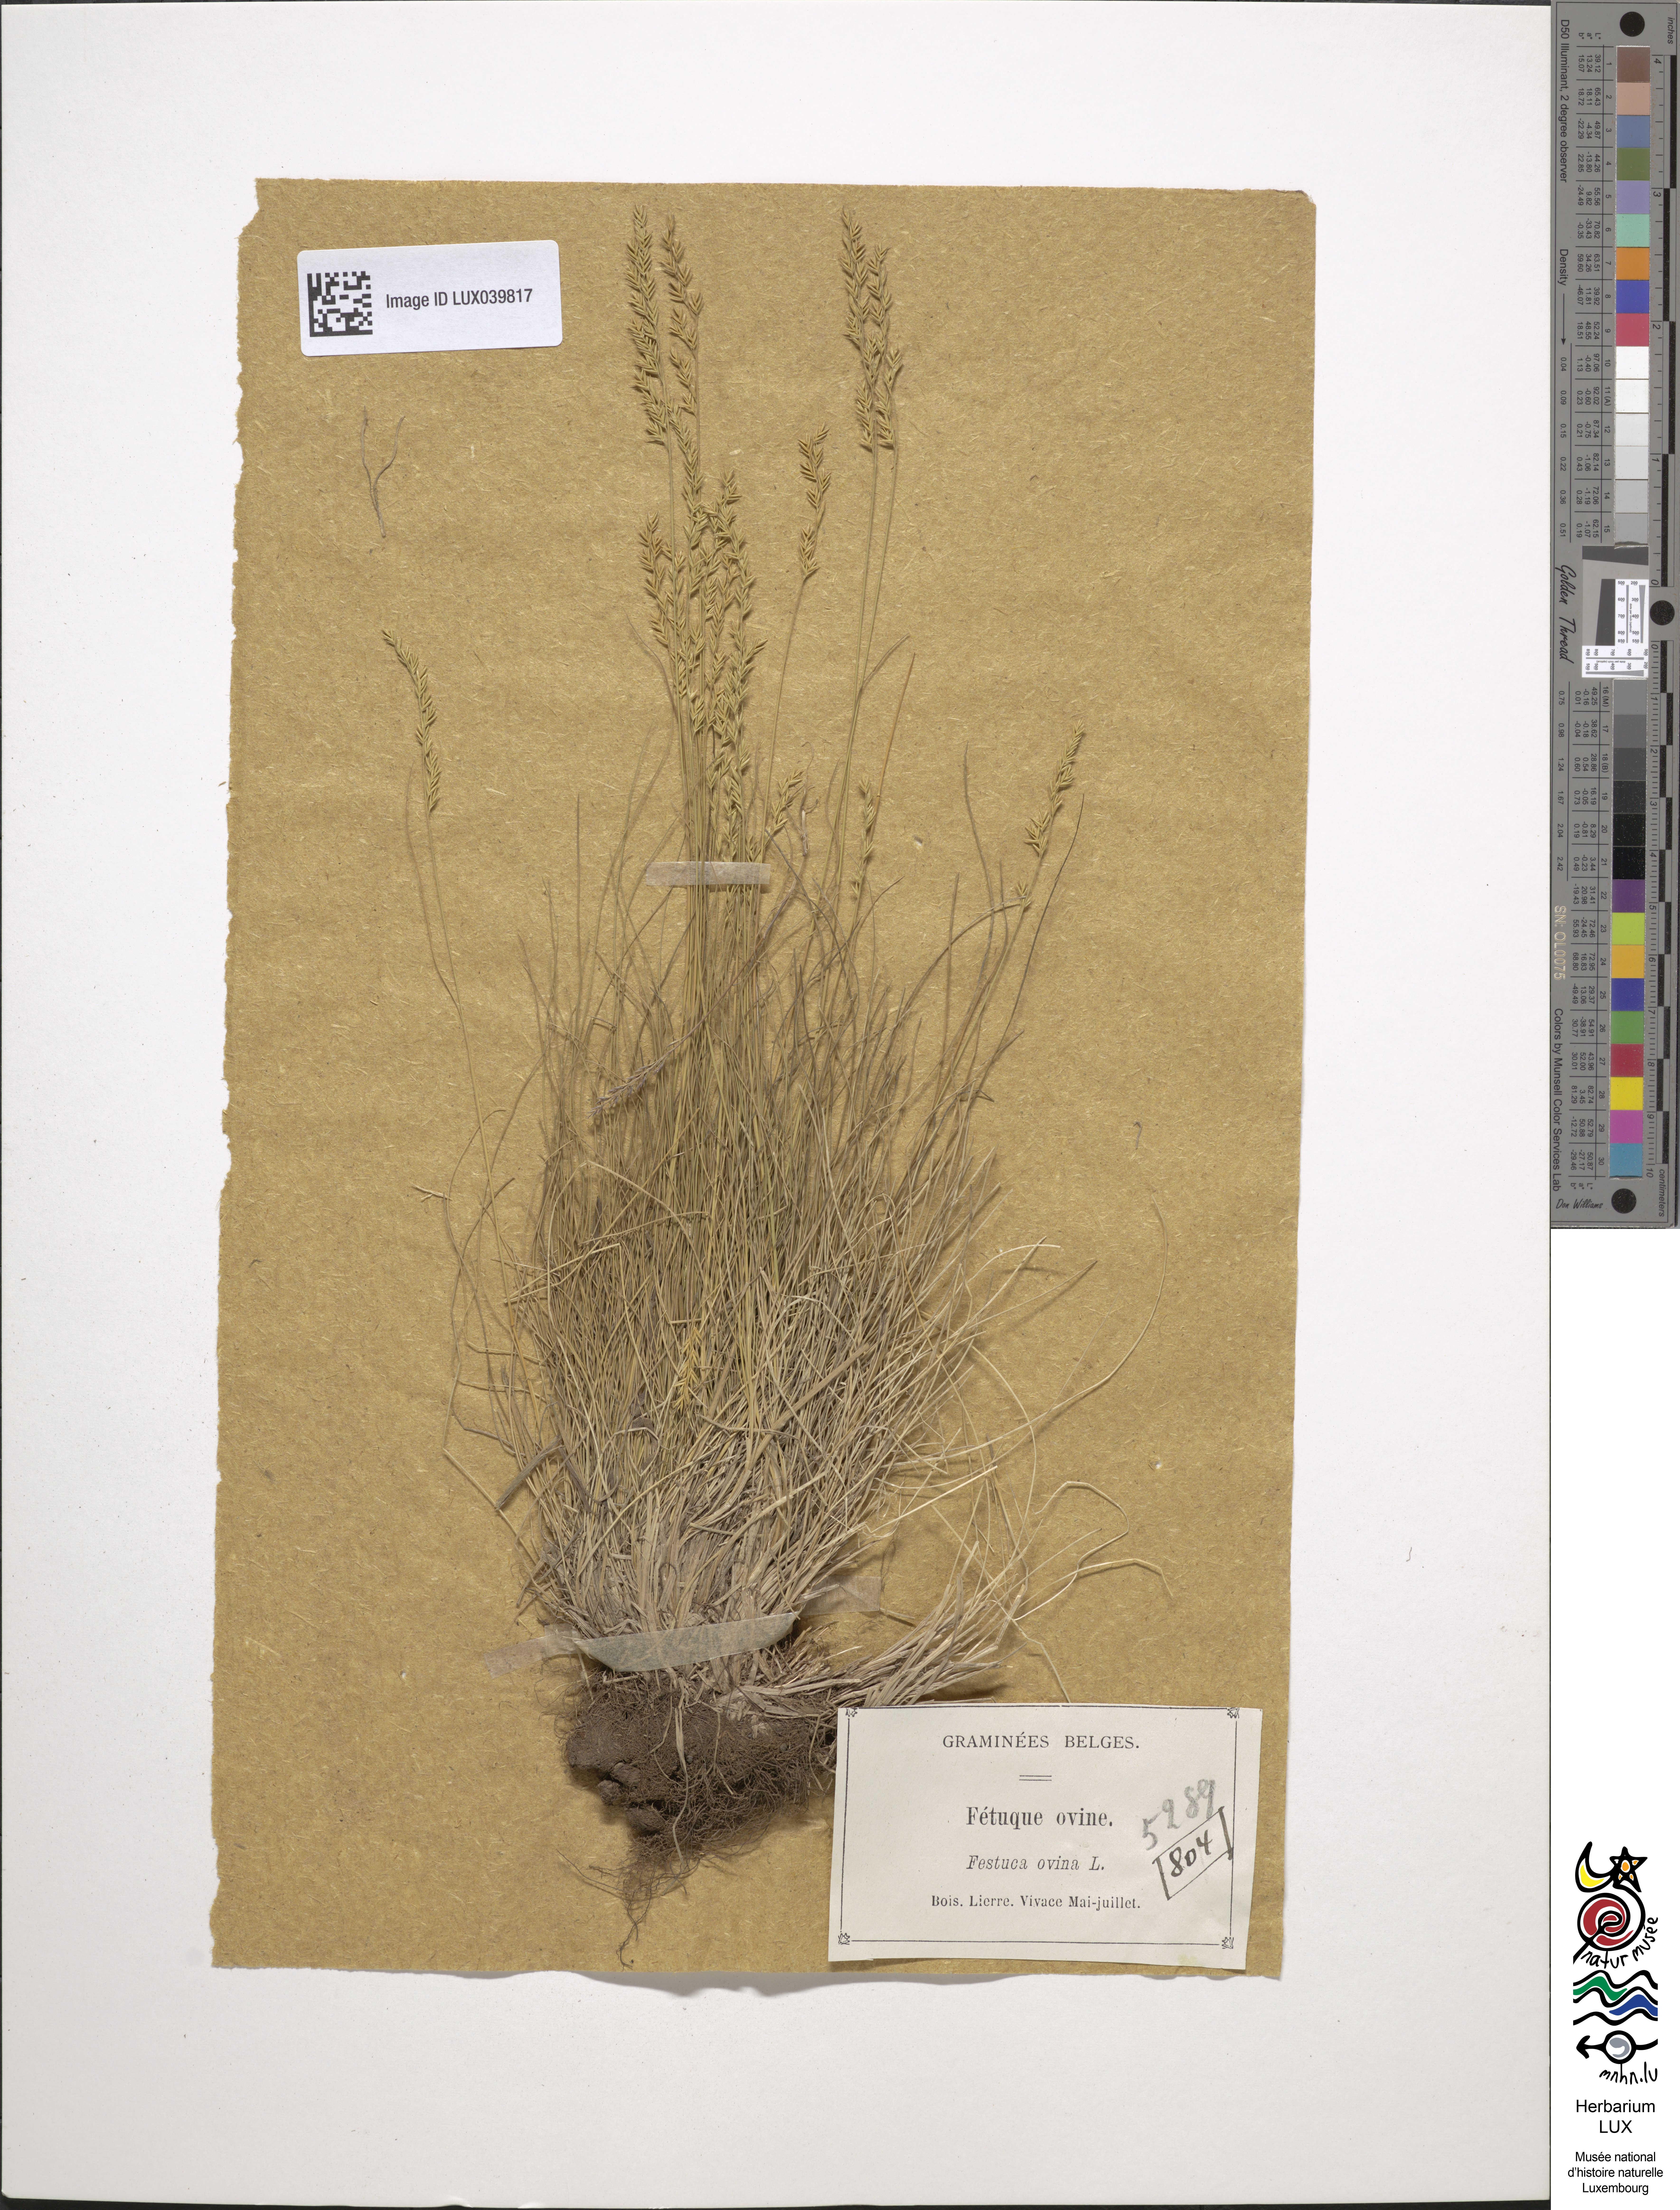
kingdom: Plantae
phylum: Tracheophyta
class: Liliopsida
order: Poales
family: Poaceae
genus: Festuca
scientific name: Festuca ovina
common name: Sheep fescue
